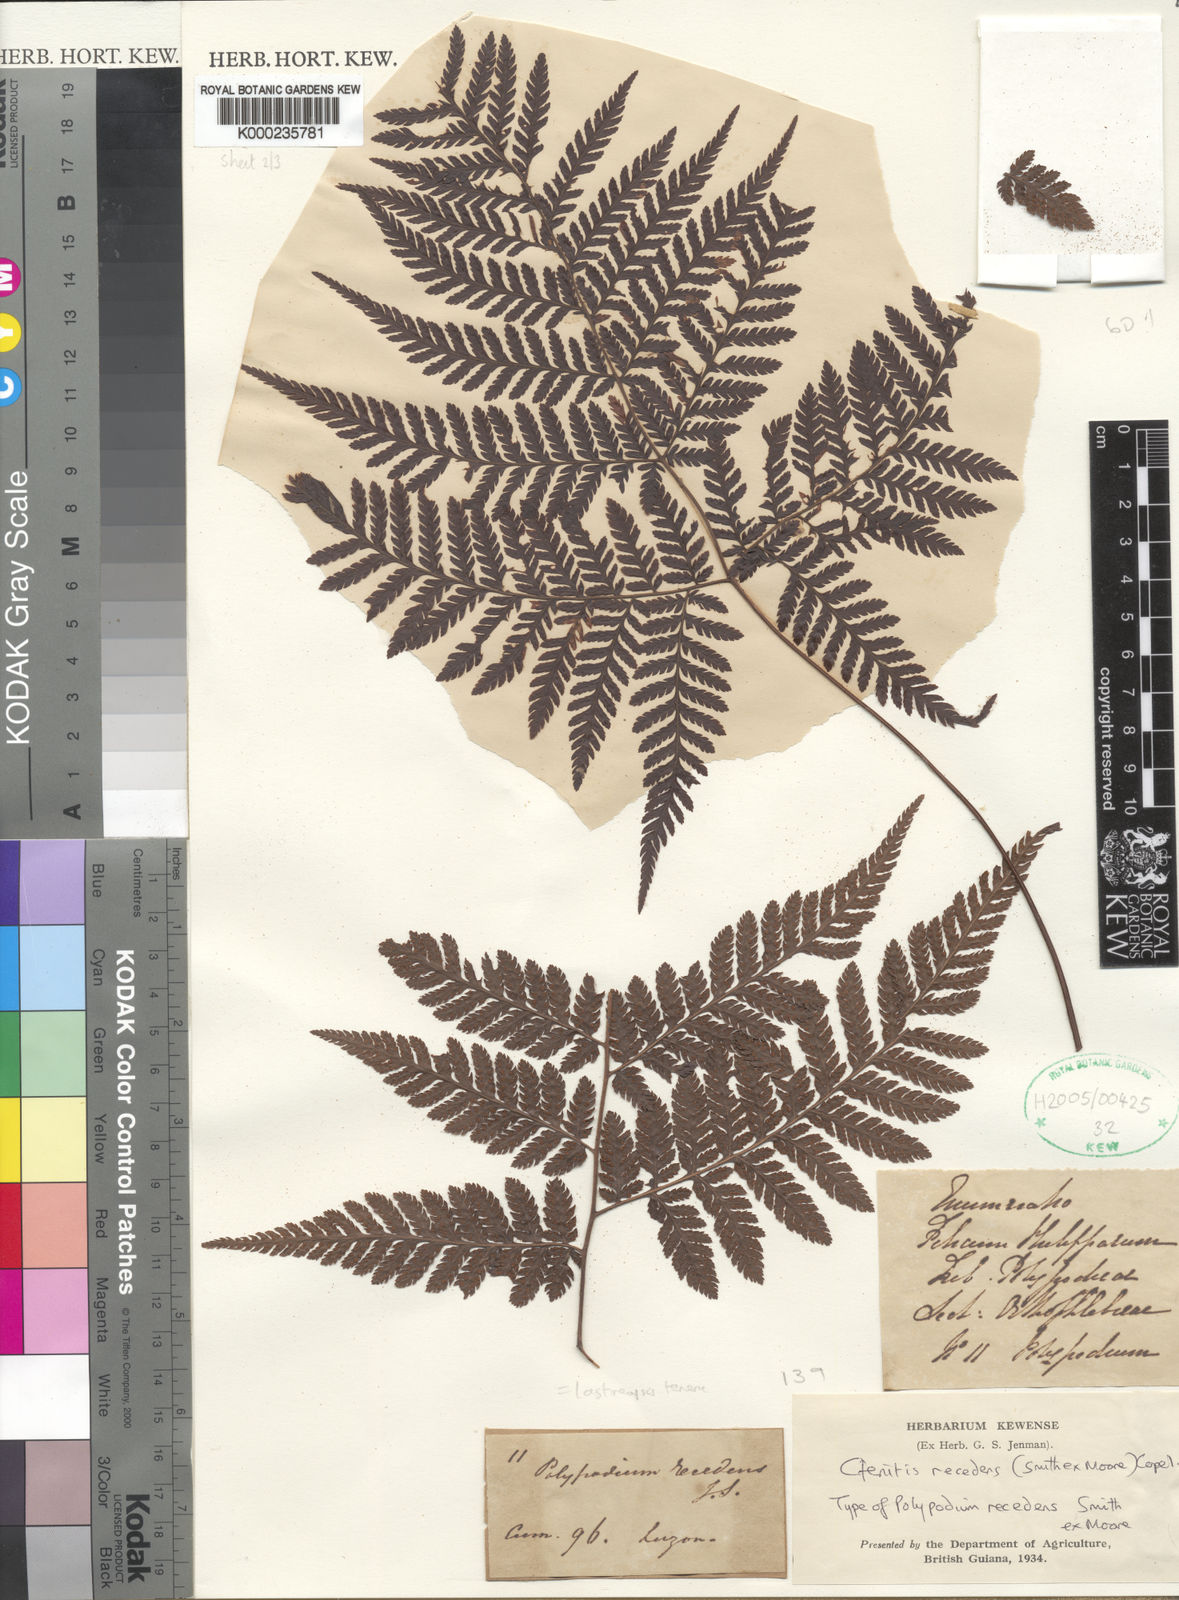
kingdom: Plantae
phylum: Tracheophyta
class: Polypodiopsida
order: Polypodiales
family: Dryopteridaceae
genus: Lastreopsis
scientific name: Lastreopsis tenera
